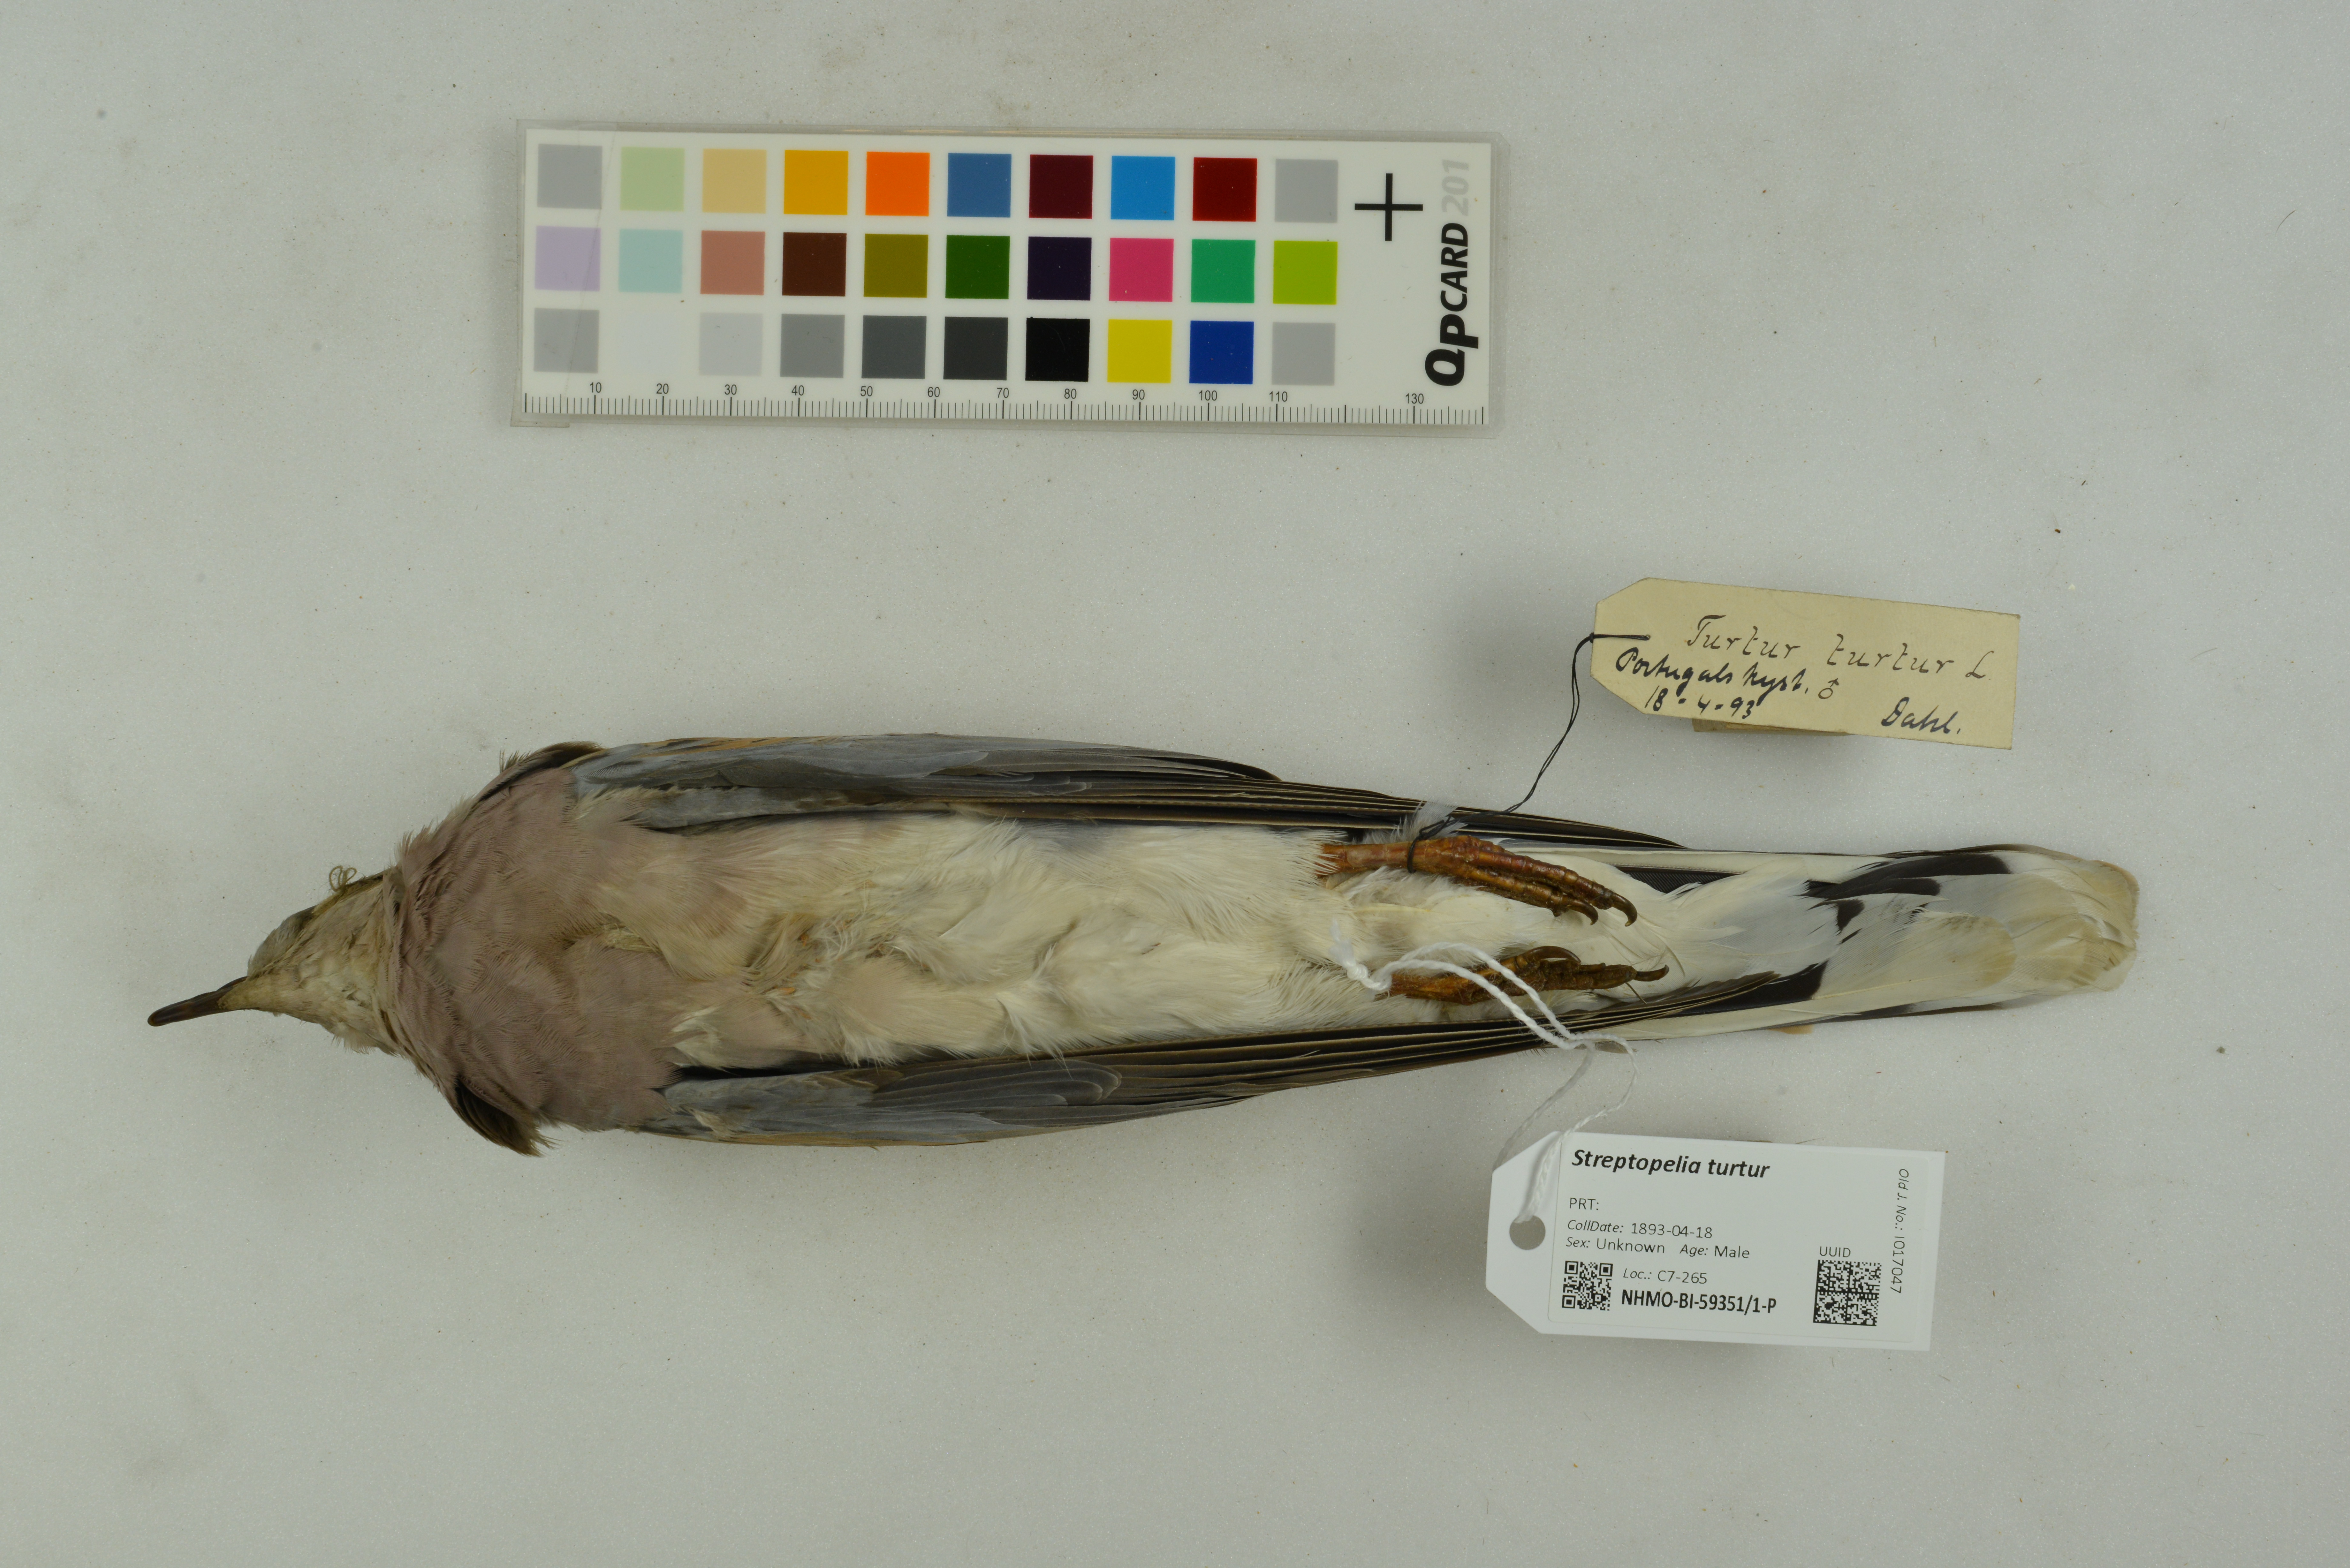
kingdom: Animalia
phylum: Chordata
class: Aves
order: Columbiformes
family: Columbidae
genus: Streptopelia
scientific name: Streptopelia turtur
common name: European turtle dove
